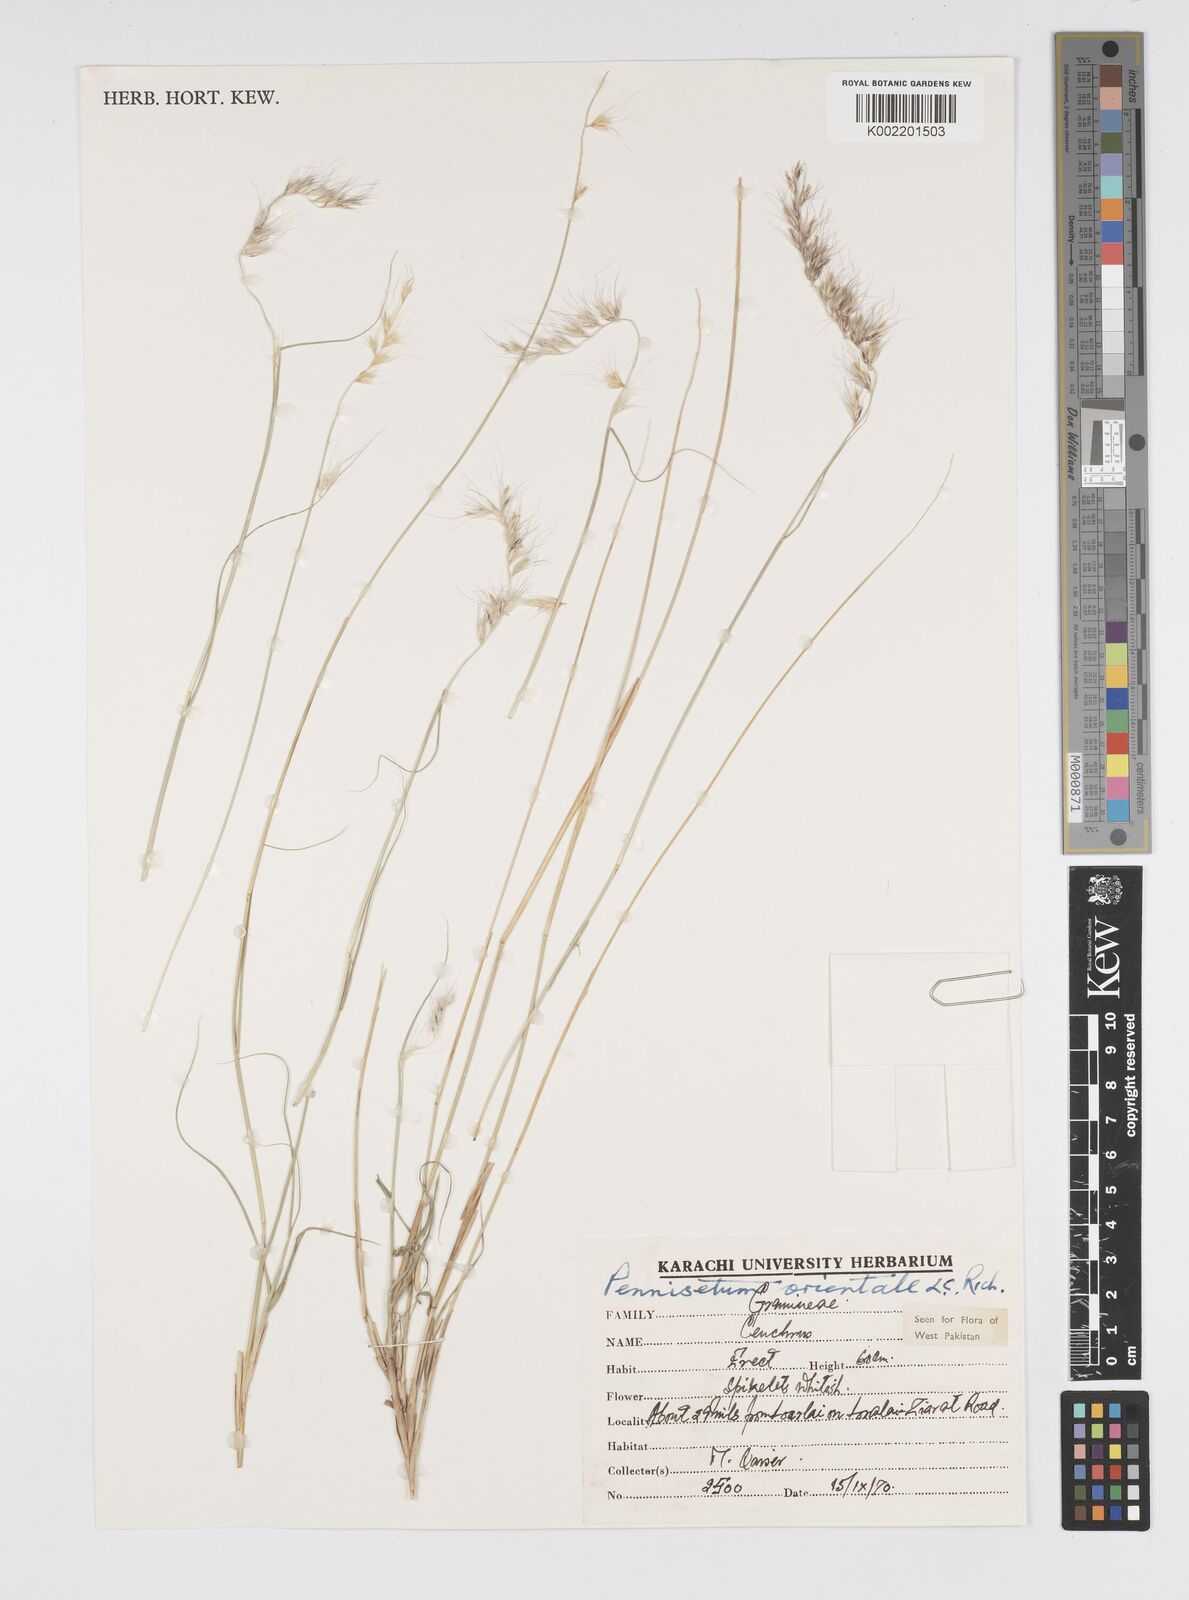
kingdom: Plantae
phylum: Tracheophyta
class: Liliopsida
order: Poales
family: Poaceae
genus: Cenchrus
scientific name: Cenchrus orientalis
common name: Oriental fountain grass
